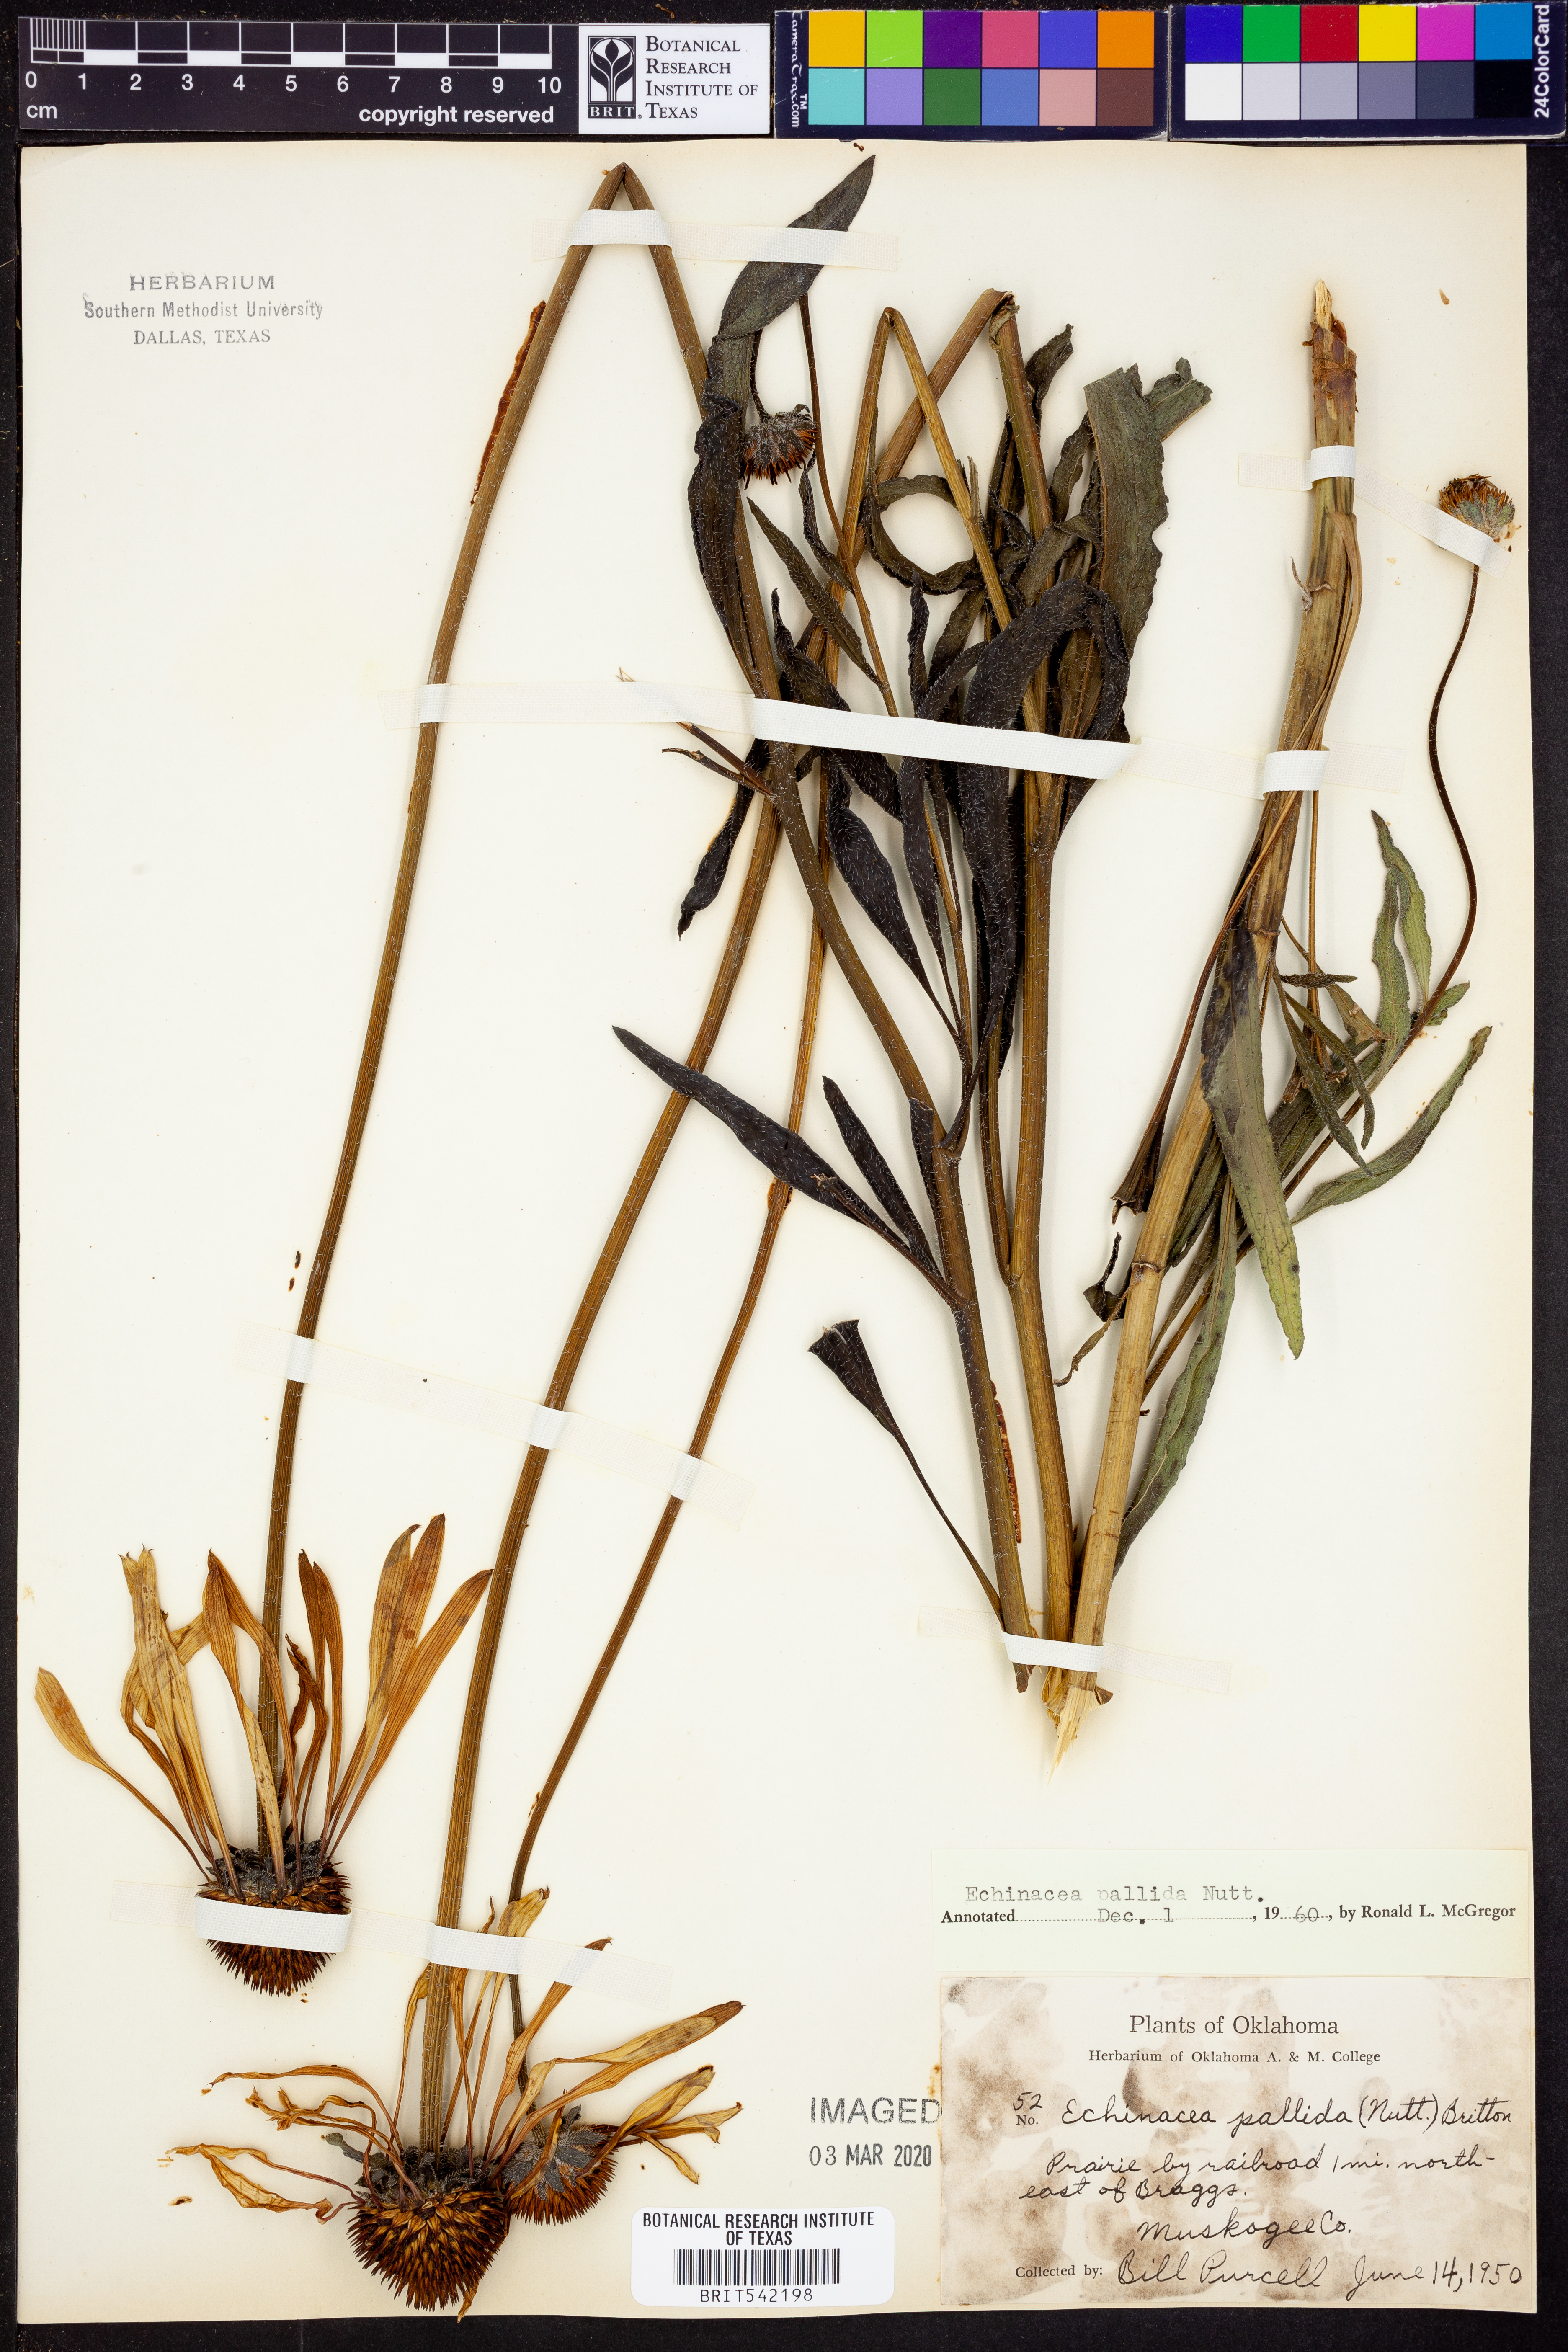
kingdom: Plantae
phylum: Tracheophyta
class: Magnoliopsida
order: Asterales
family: Asteraceae
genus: Echinacea
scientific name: Echinacea pallida
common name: Pale echinacea
